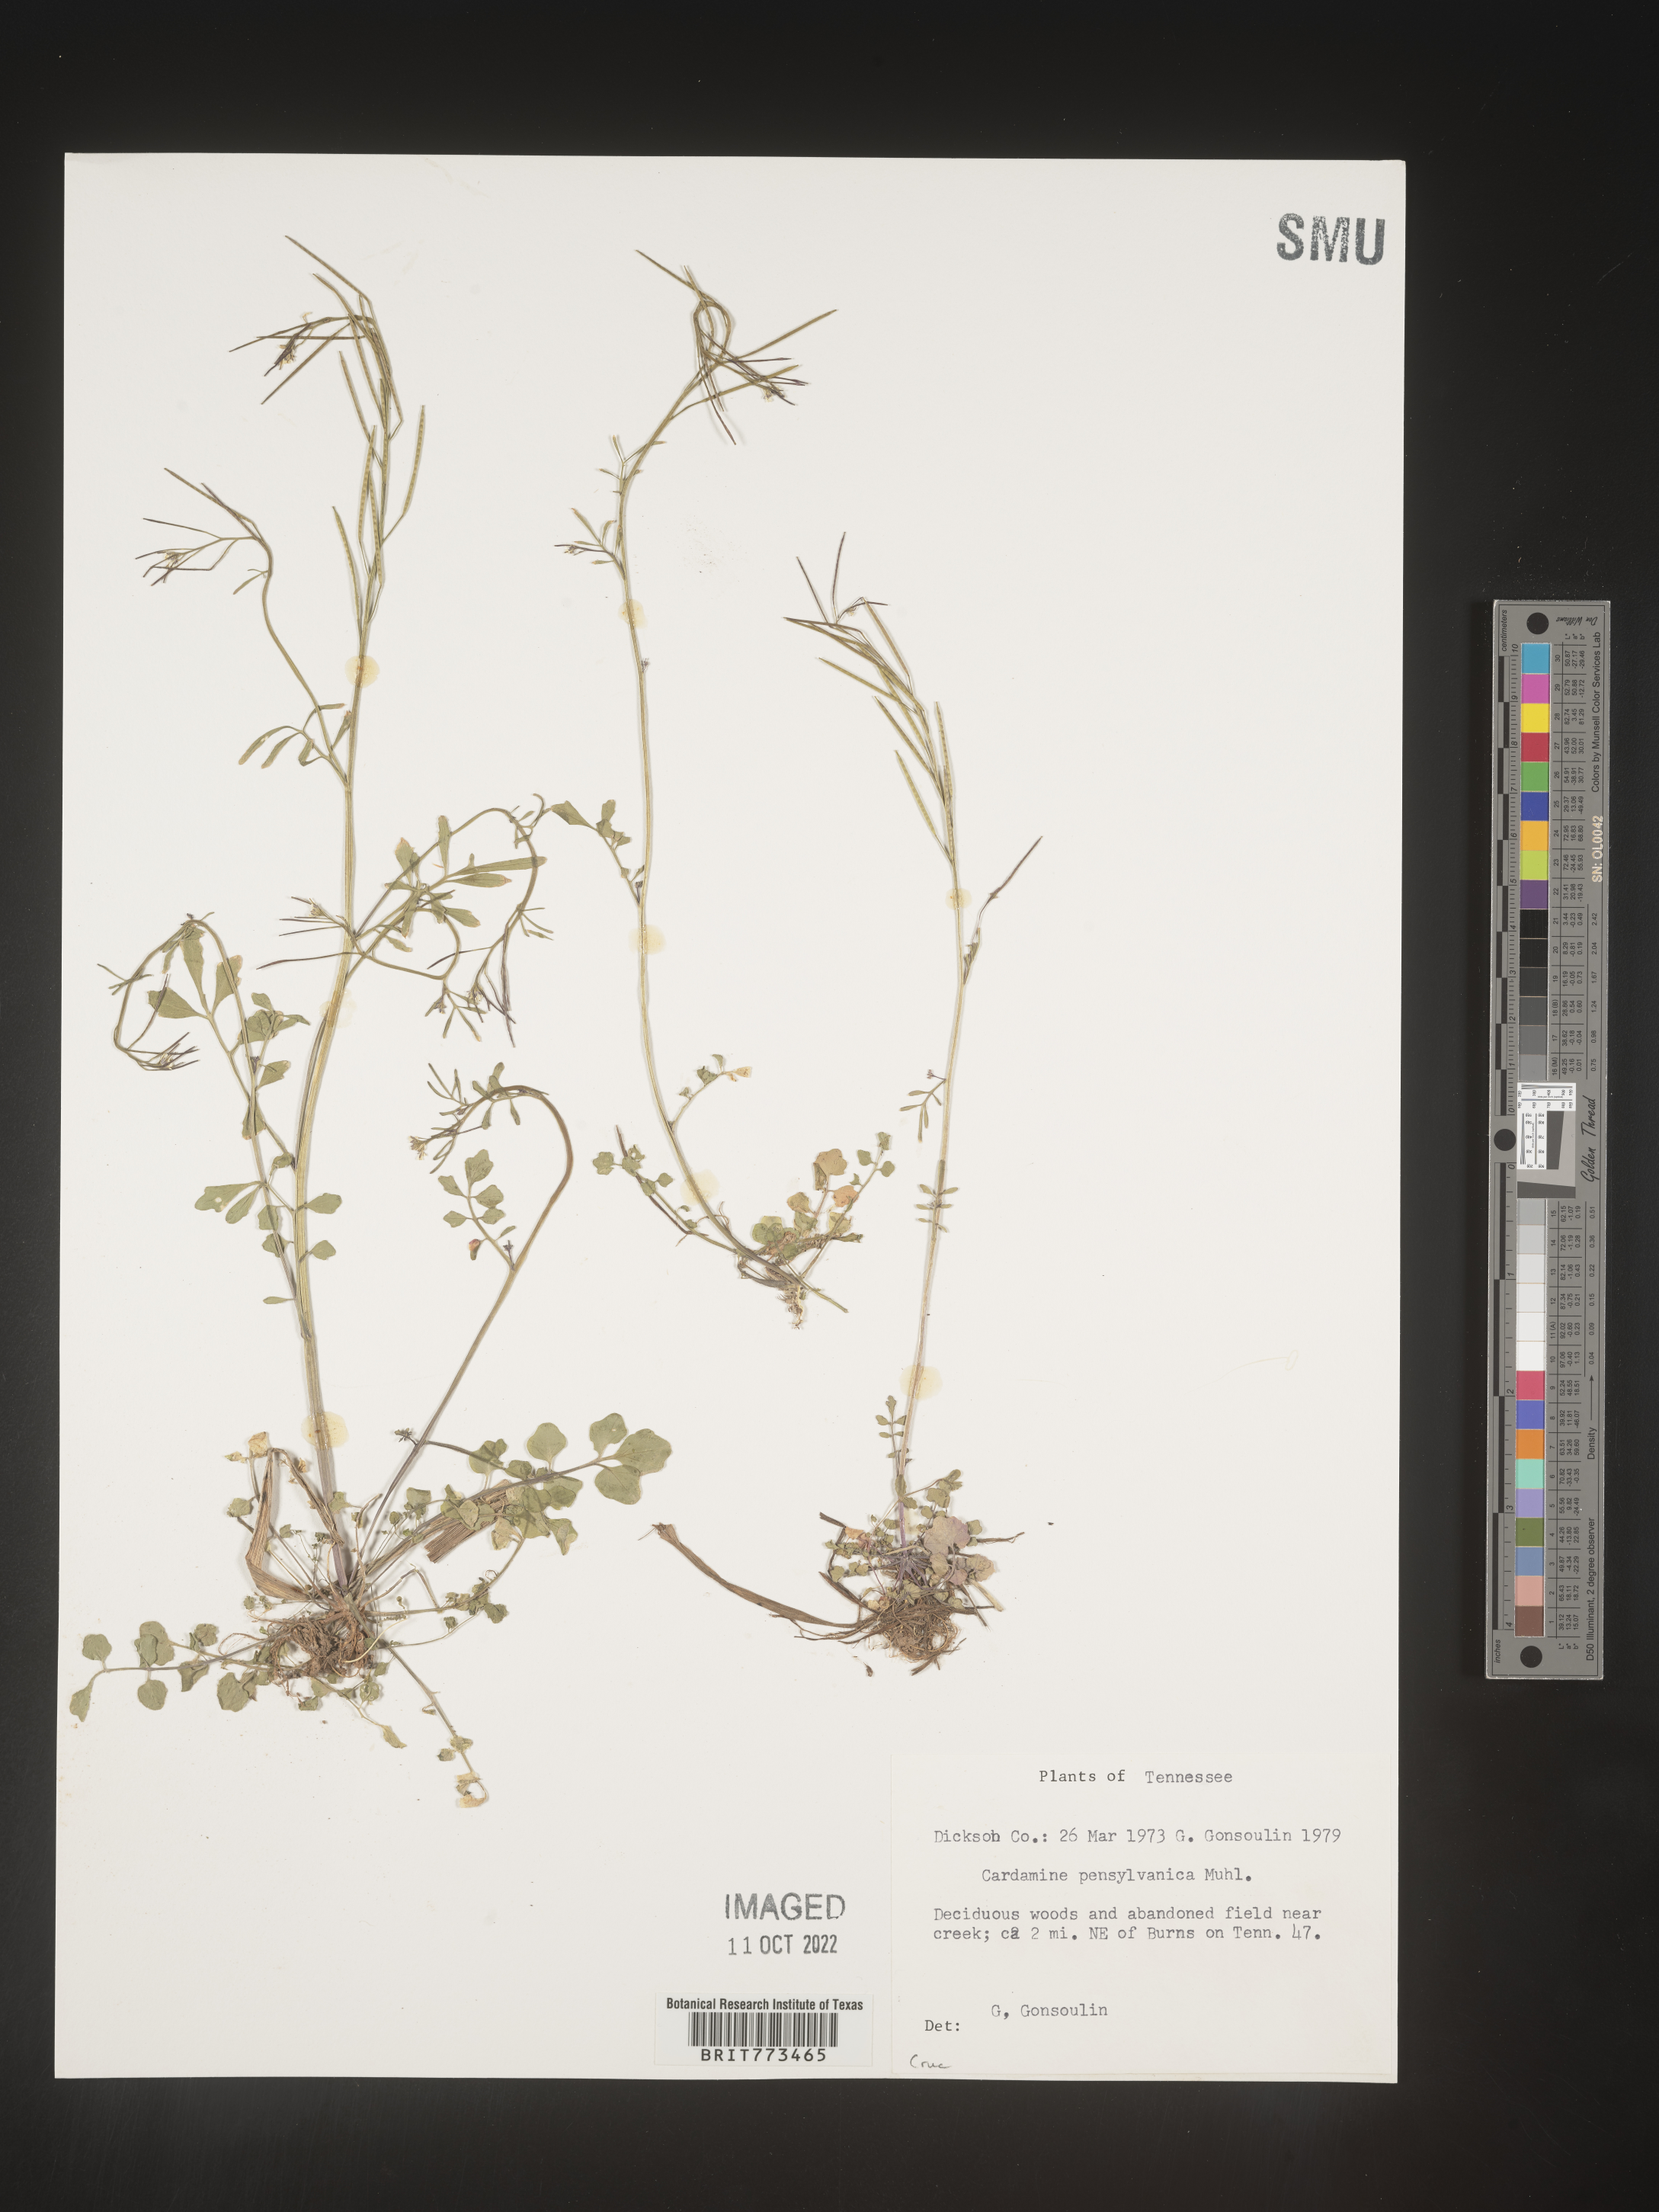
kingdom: Plantae
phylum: Tracheophyta
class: Magnoliopsida
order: Brassicales
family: Brassicaceae
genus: Cardamine
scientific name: Cardamine pensylvanica
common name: Pennsylvania bittercress
